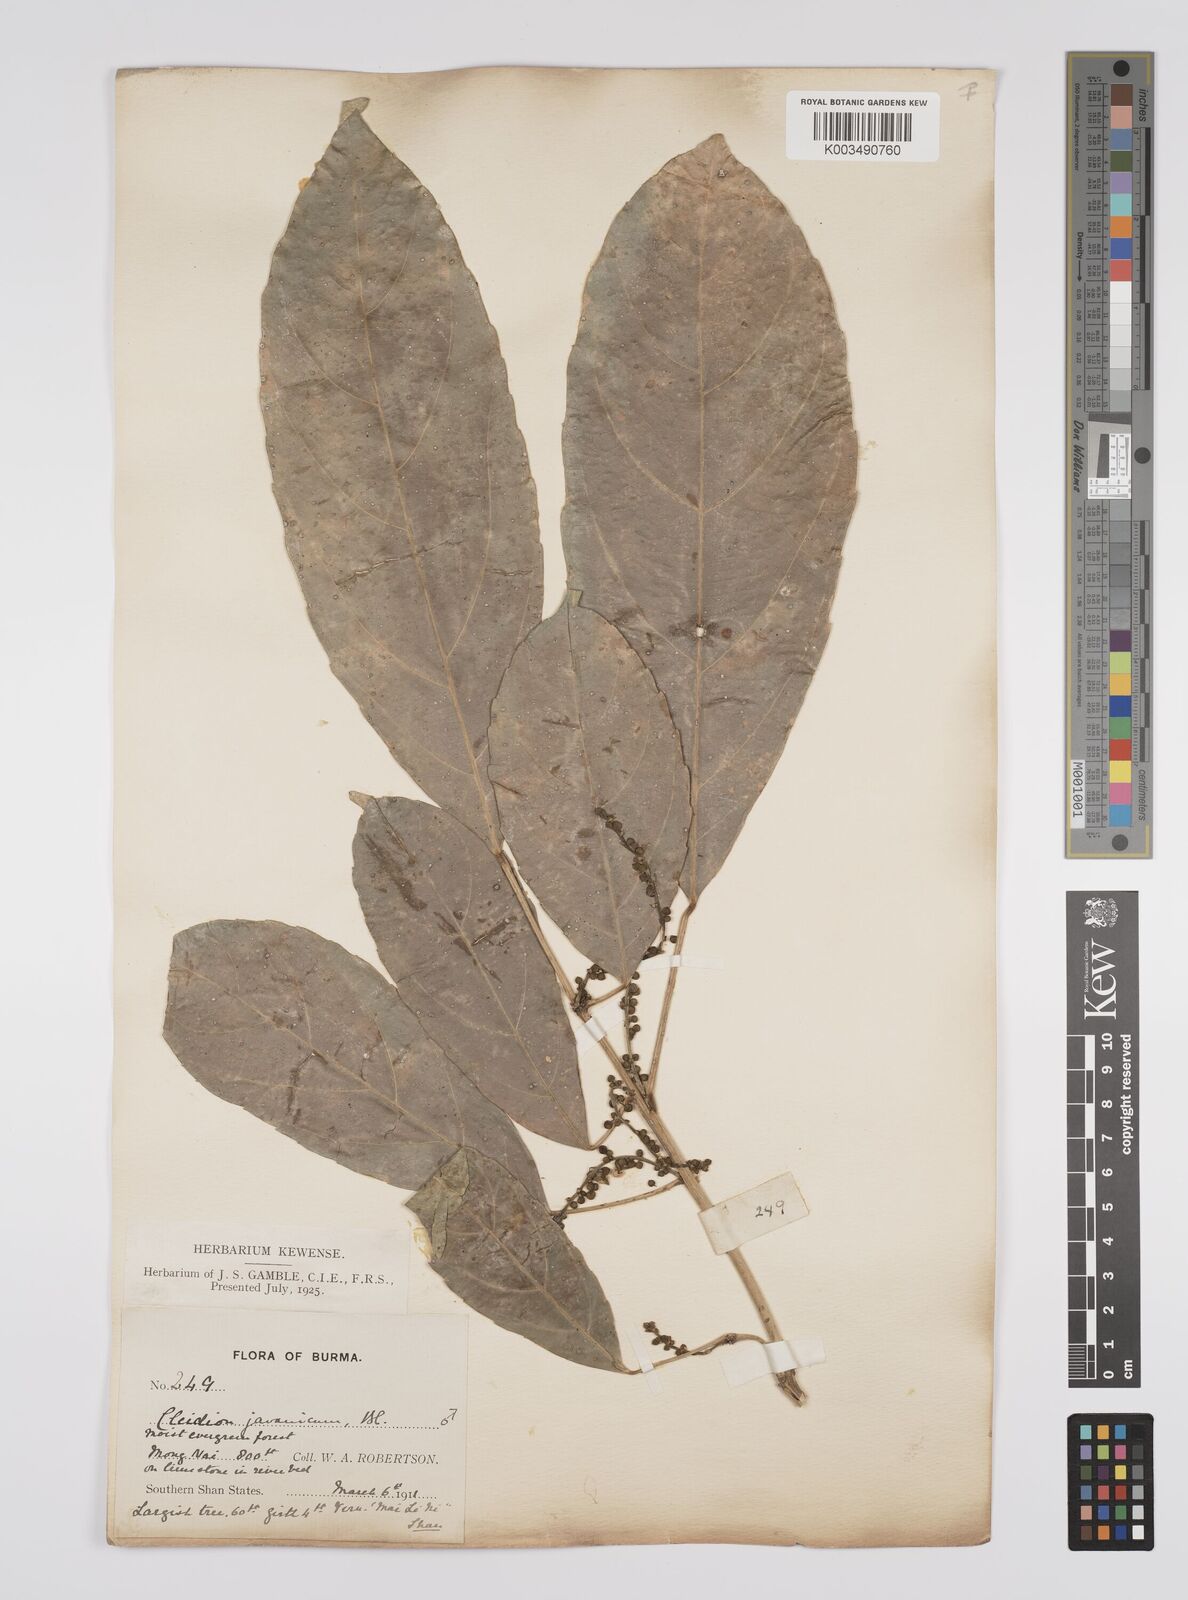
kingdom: Plantae
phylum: Tracheophyta
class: Magnoliopsida
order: Malpighiales
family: Euphorbiaceae
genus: Acalypha
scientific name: Acalypha spiciflora
